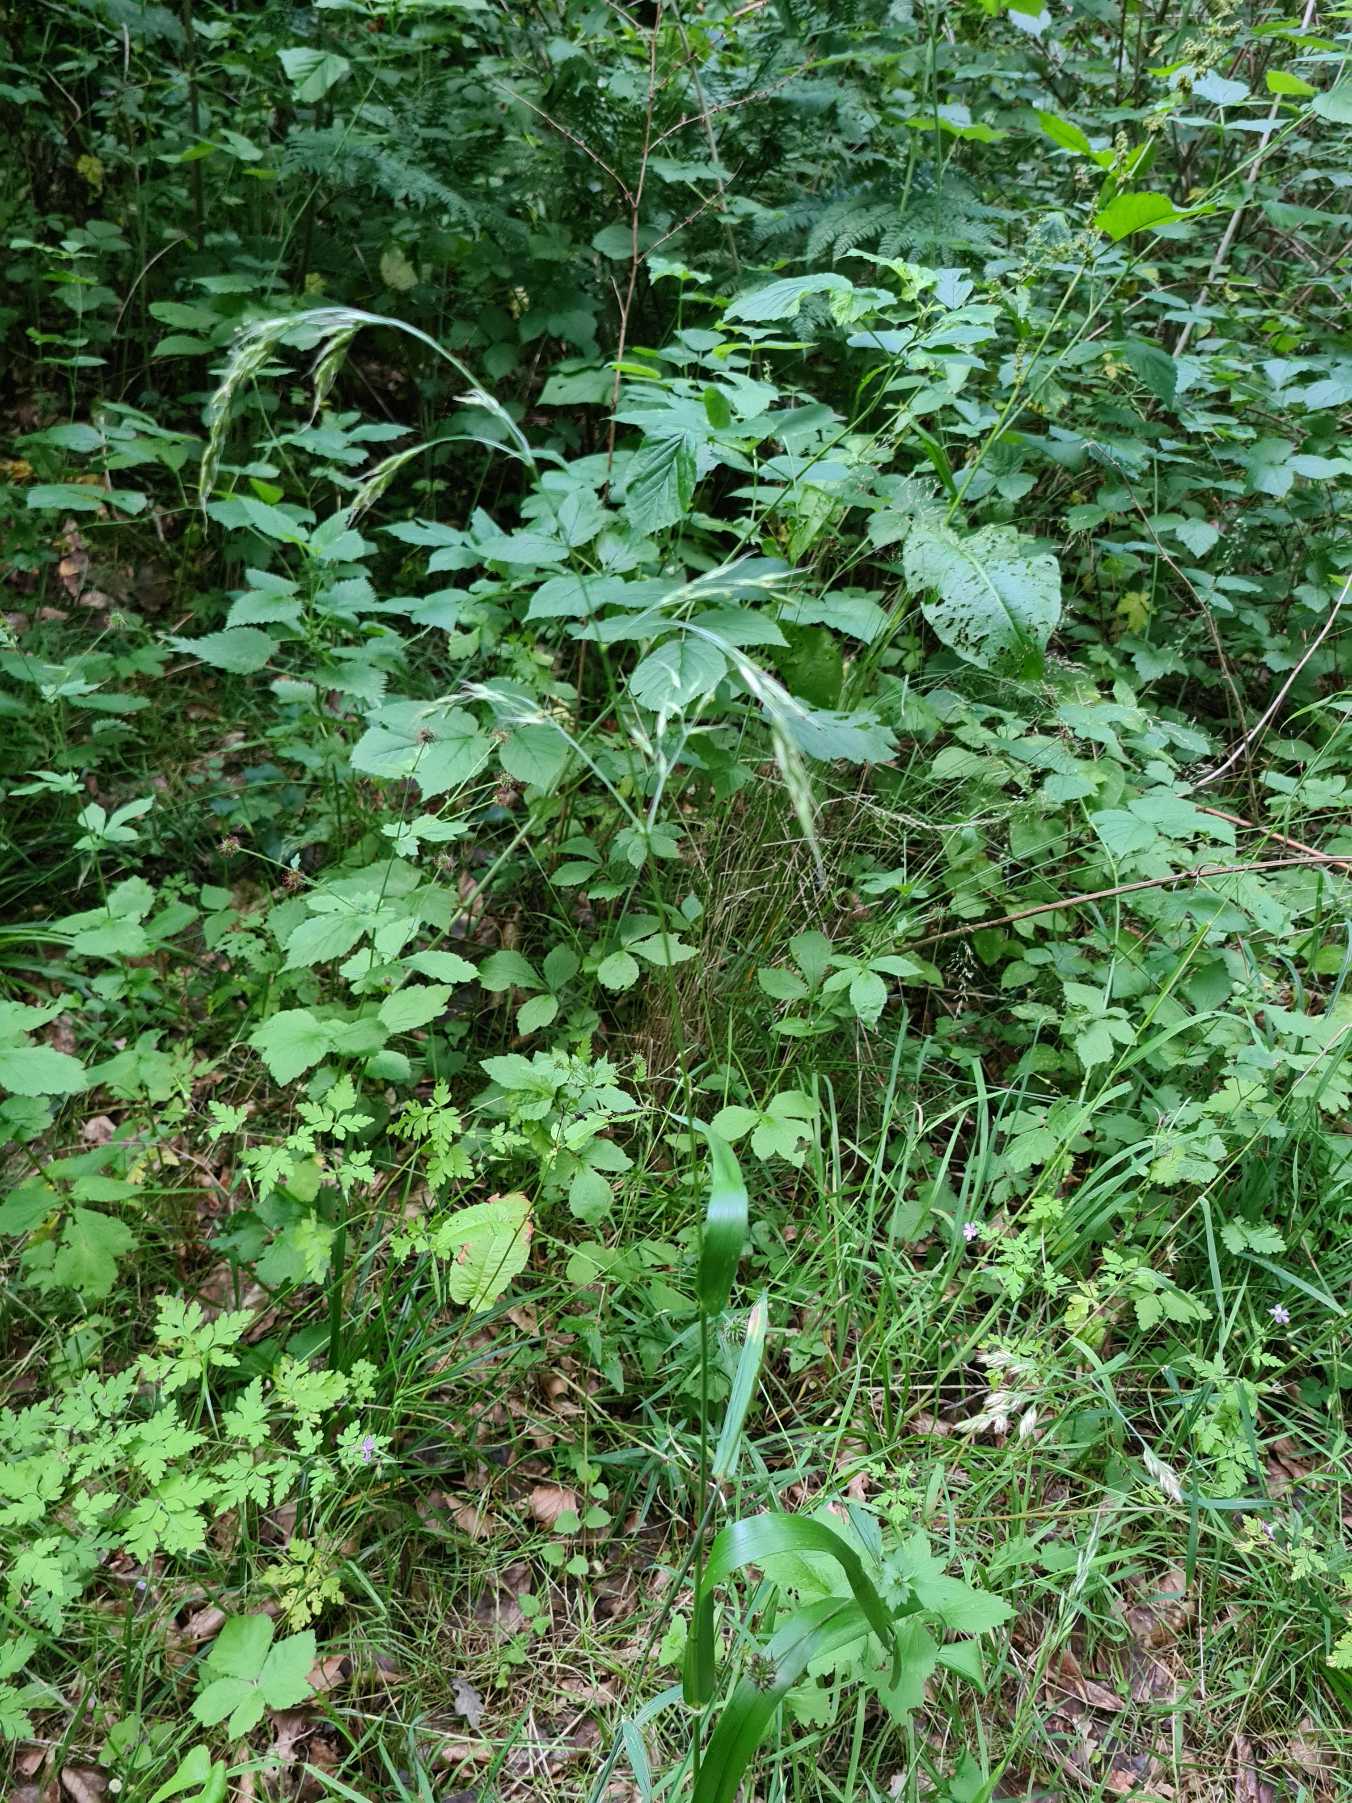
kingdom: Plantae
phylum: Tracheophyta
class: Liliopsida
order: Poales
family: Poaceae
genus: Lolium
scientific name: Lolium giganteum
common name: Kæmpe-svingel
